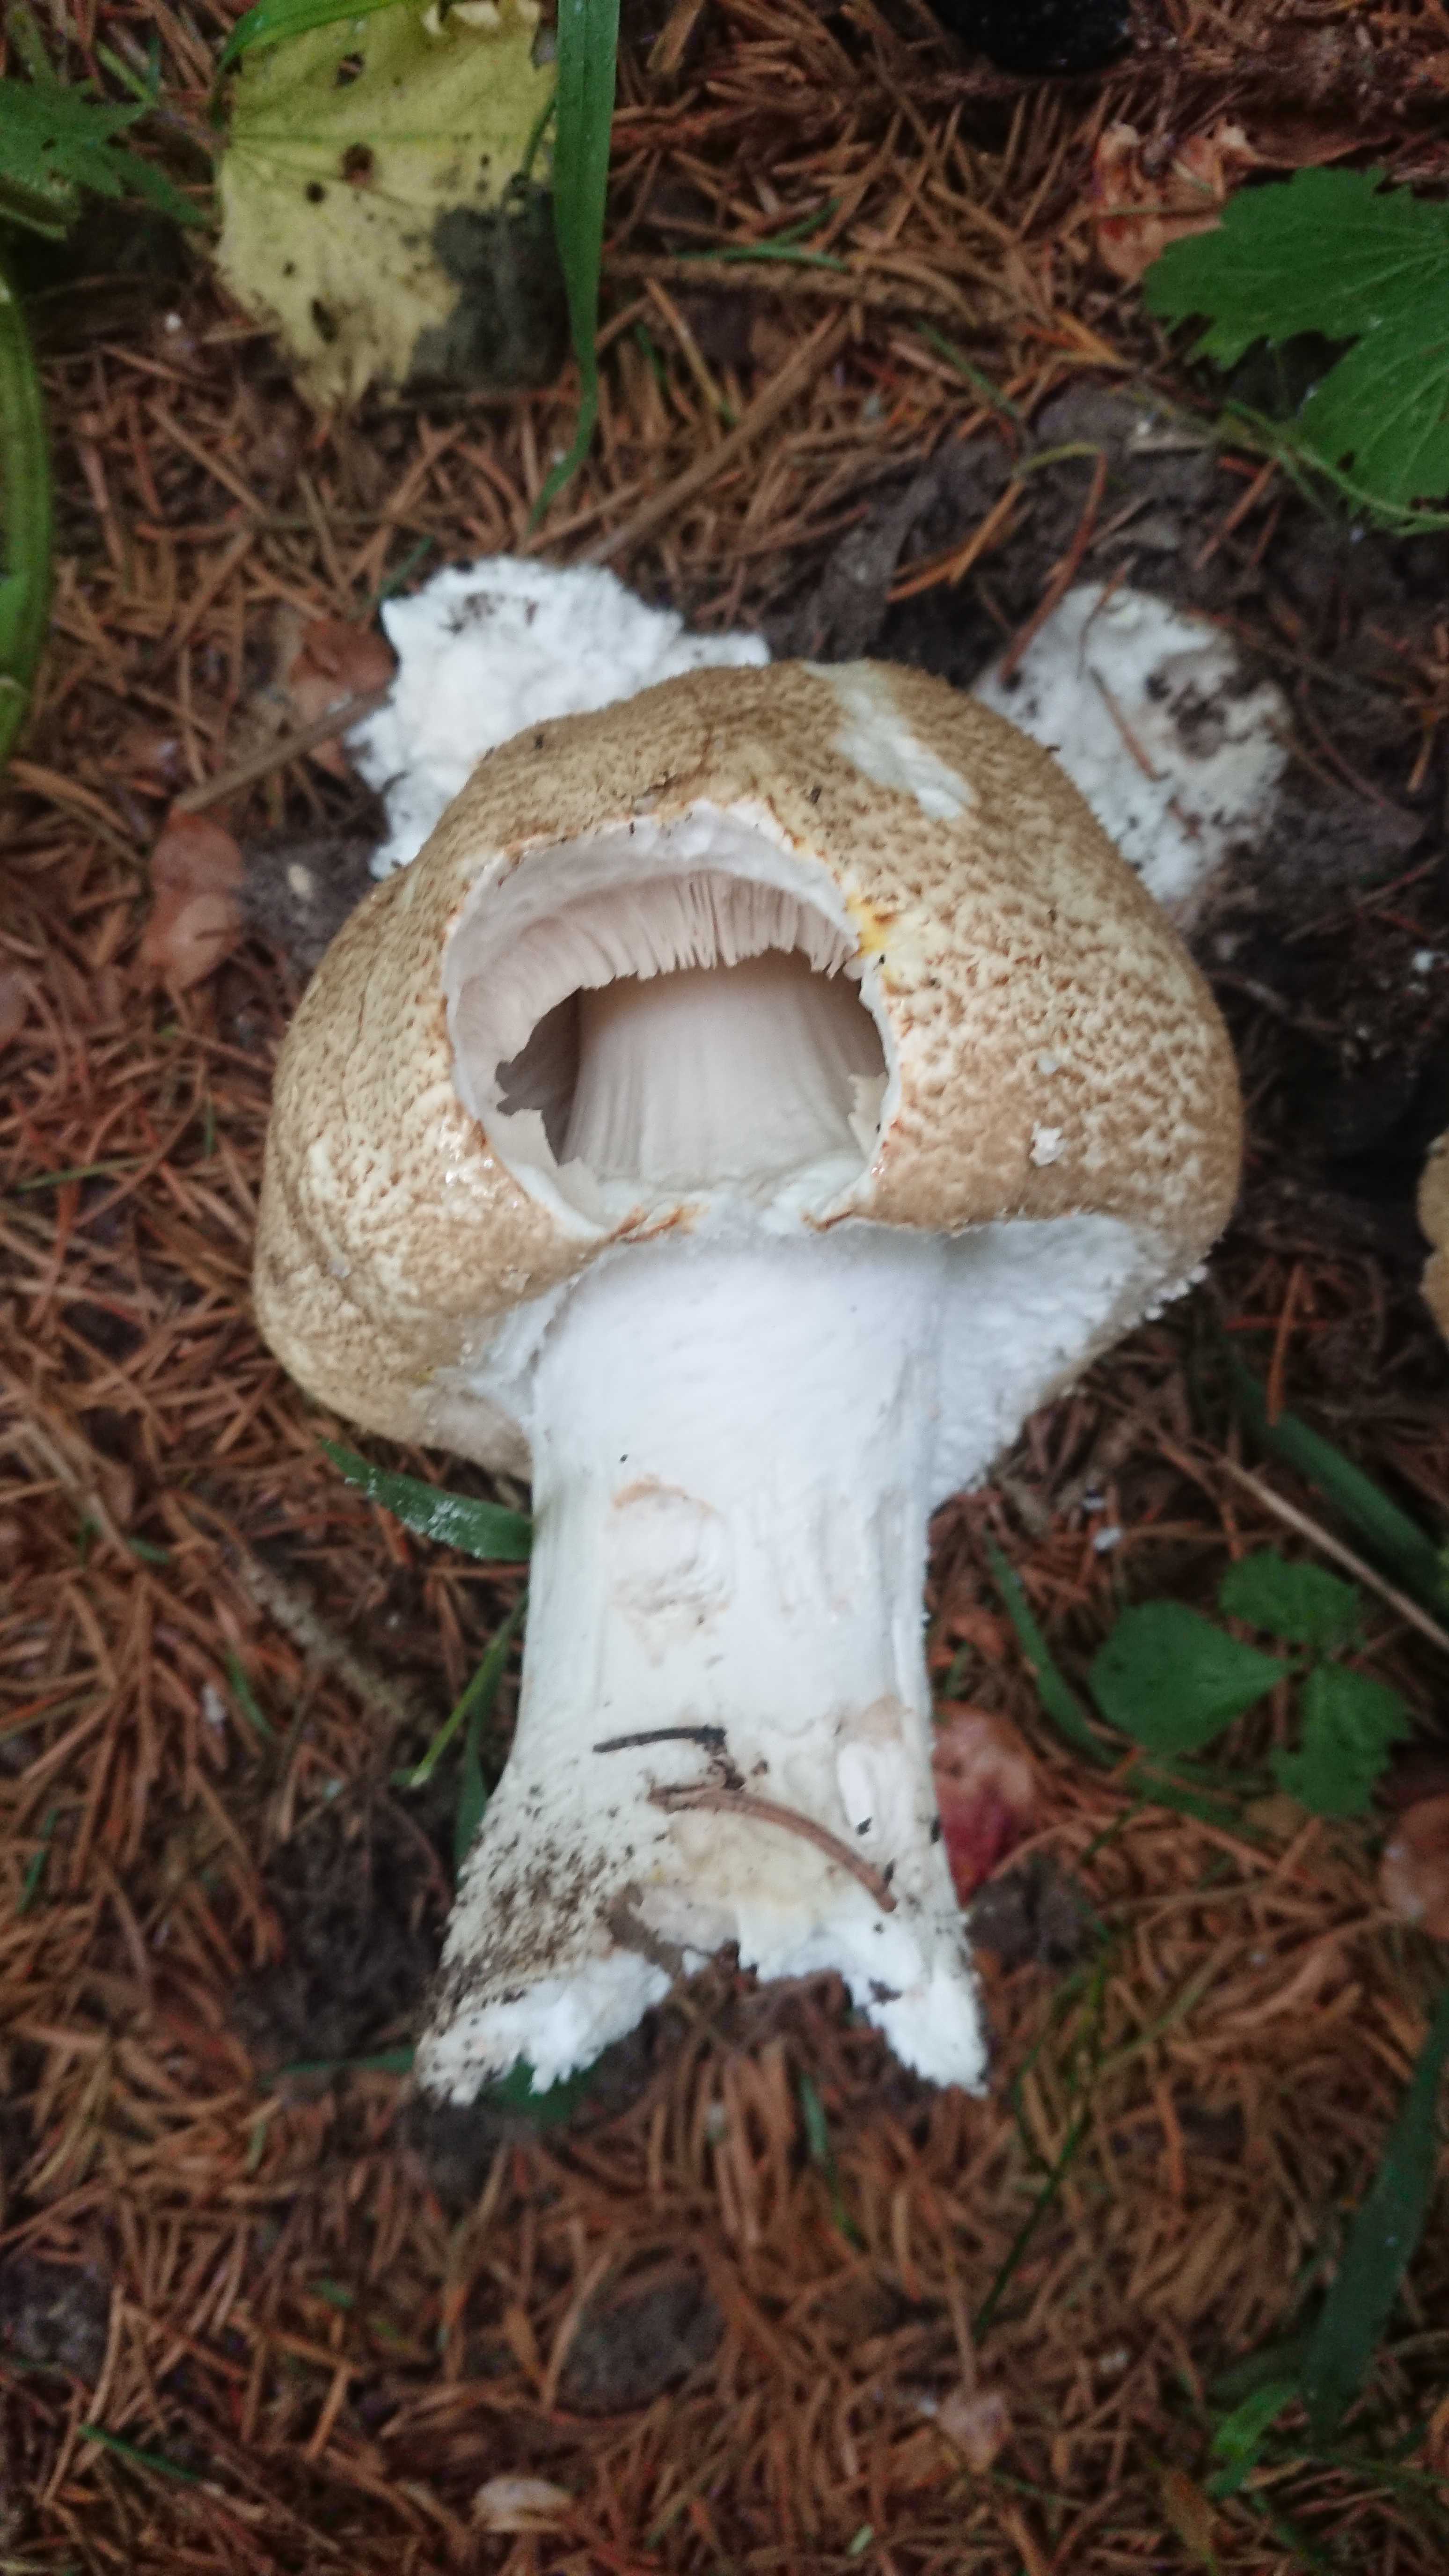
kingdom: Fungi
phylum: Basidiomycota
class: Agaricomycetes
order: Agaricales
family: Agaricaceae
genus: Agaricus
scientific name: Agaricus augustus
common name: prægtig champignon
